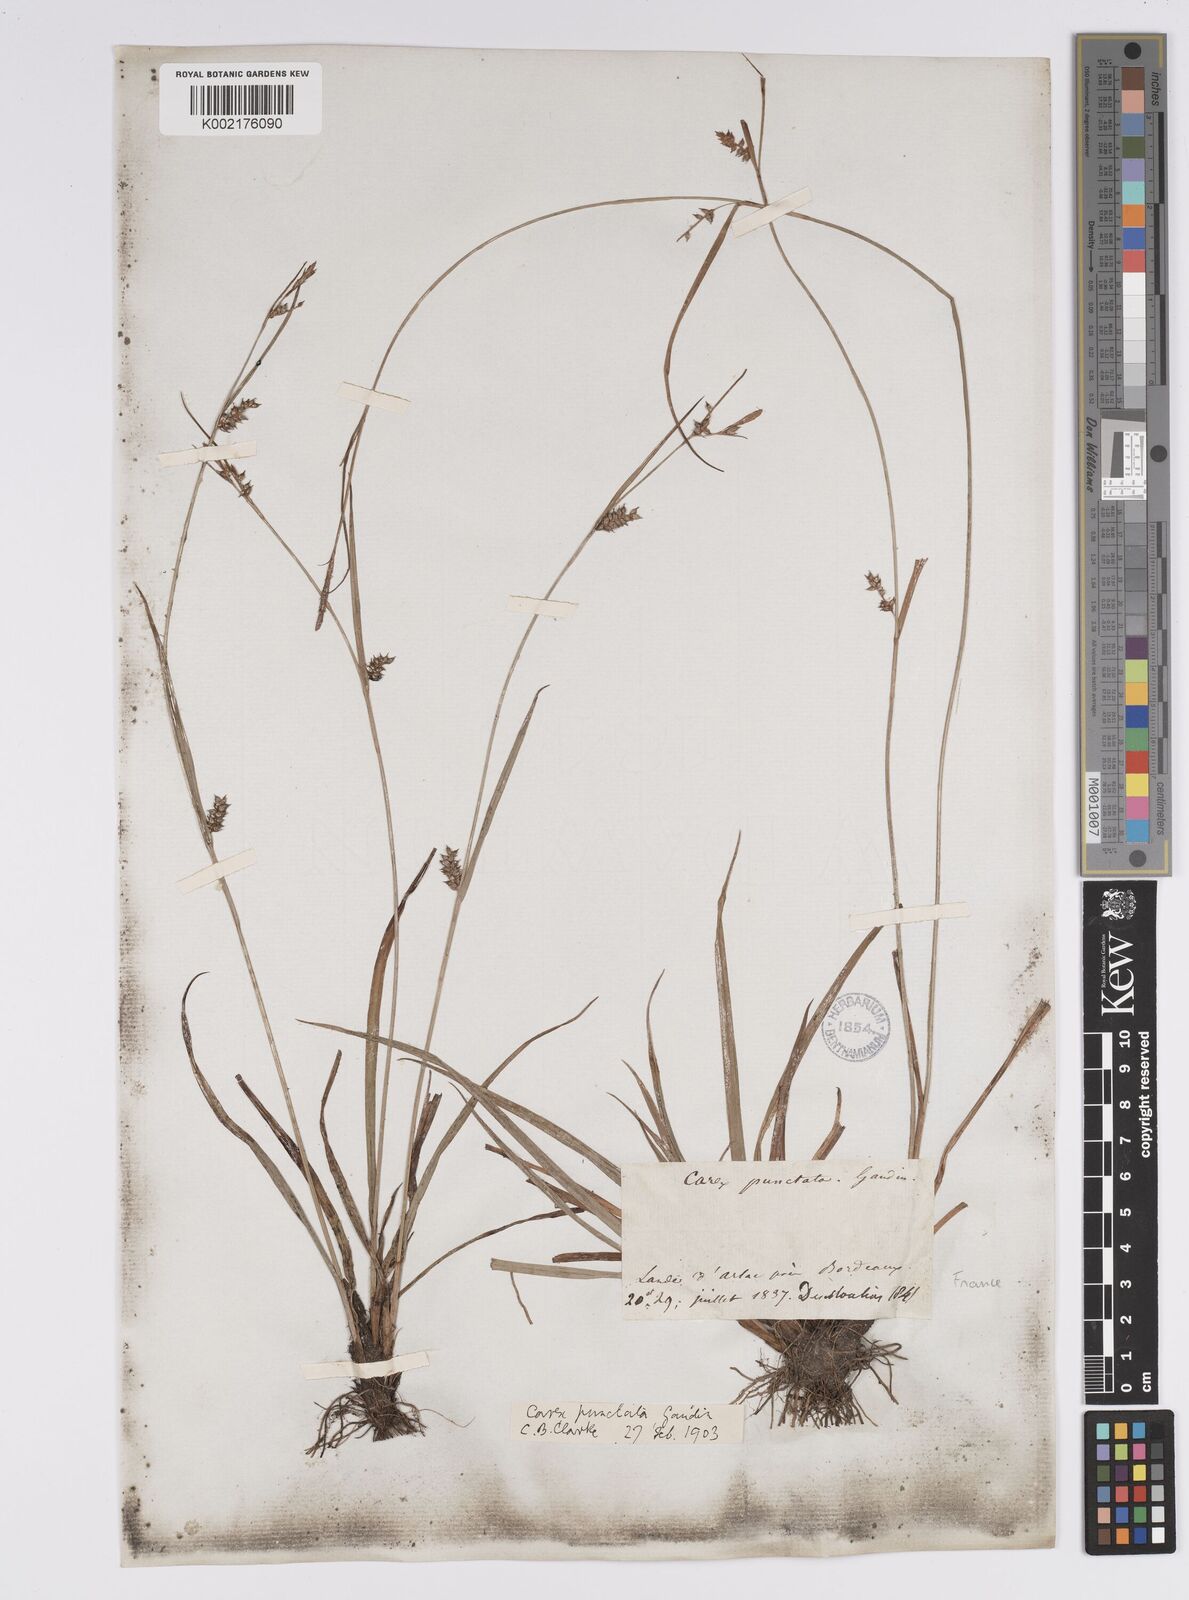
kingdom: Plantae
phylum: Tracheophyta
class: Liliopsida
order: Poales
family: Cyperaceae
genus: Carex
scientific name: Carex punctata
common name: Dotted sedge
